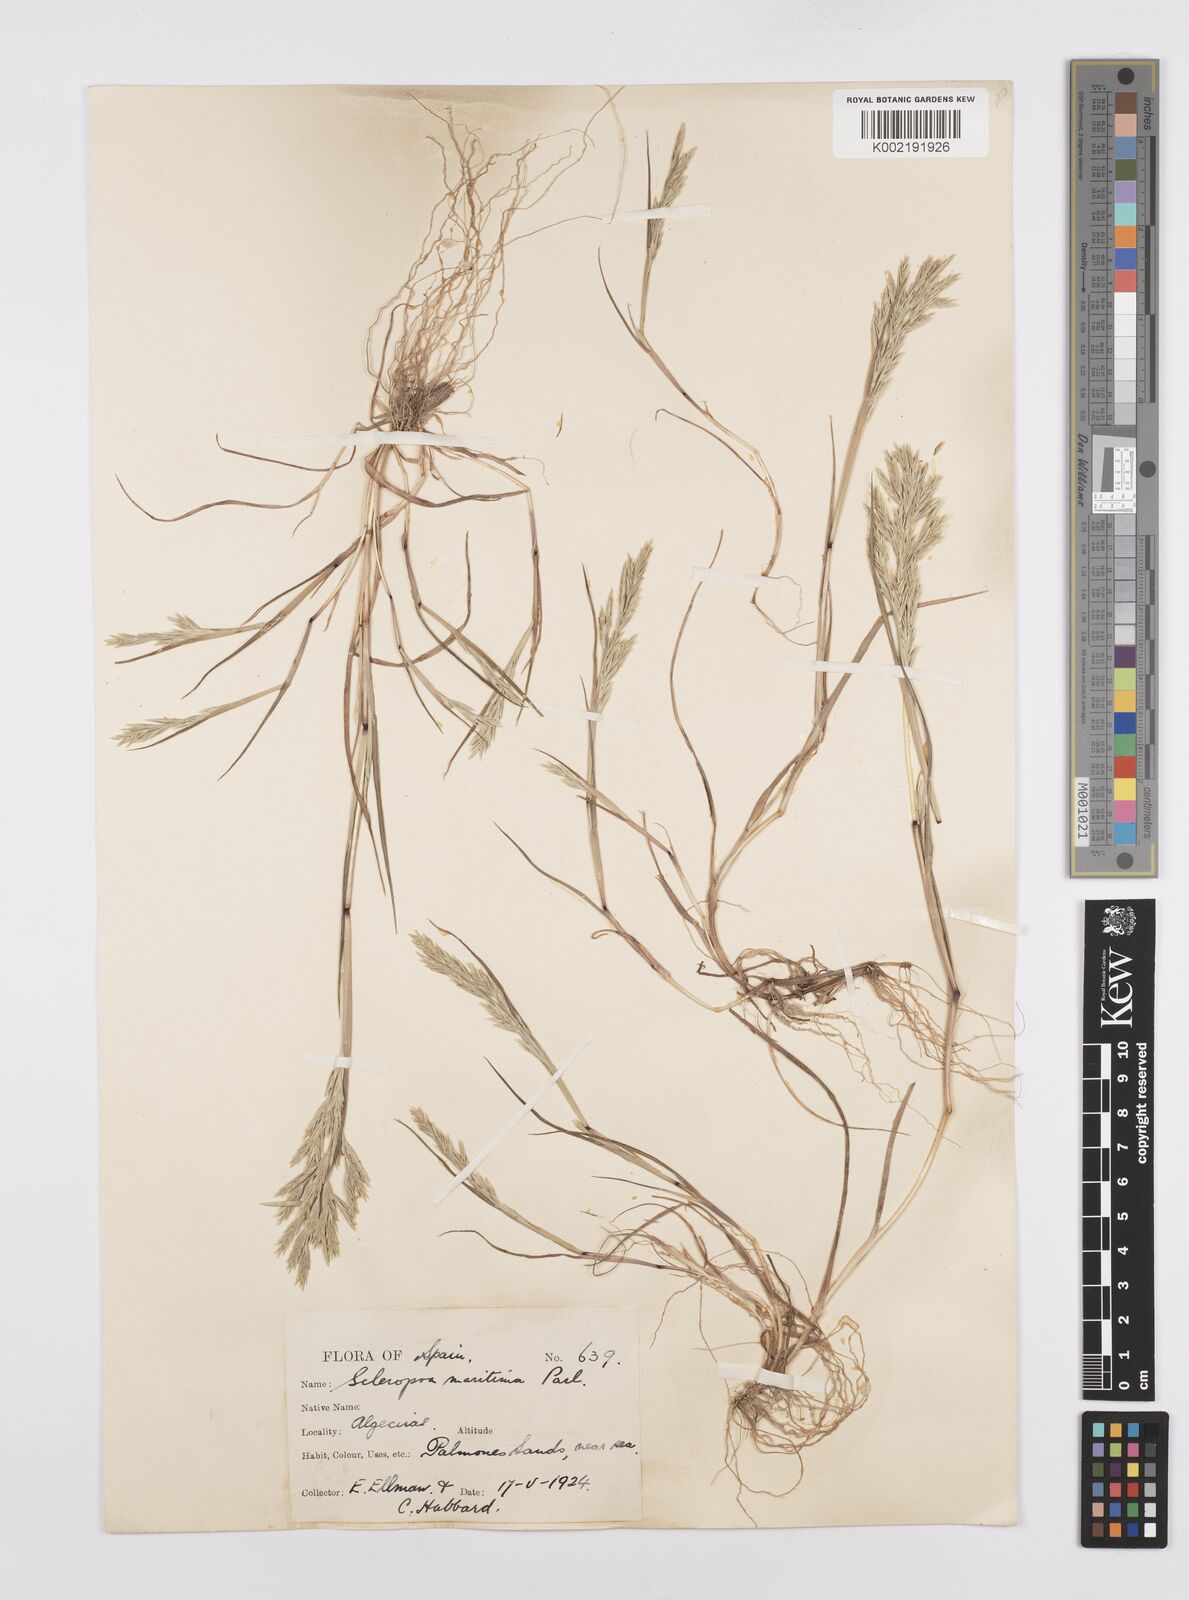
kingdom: Plantae
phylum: Tracheophyta
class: Liliopsida
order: Poales
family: Poaceae
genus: Cutandia
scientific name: Cutandia maritima
